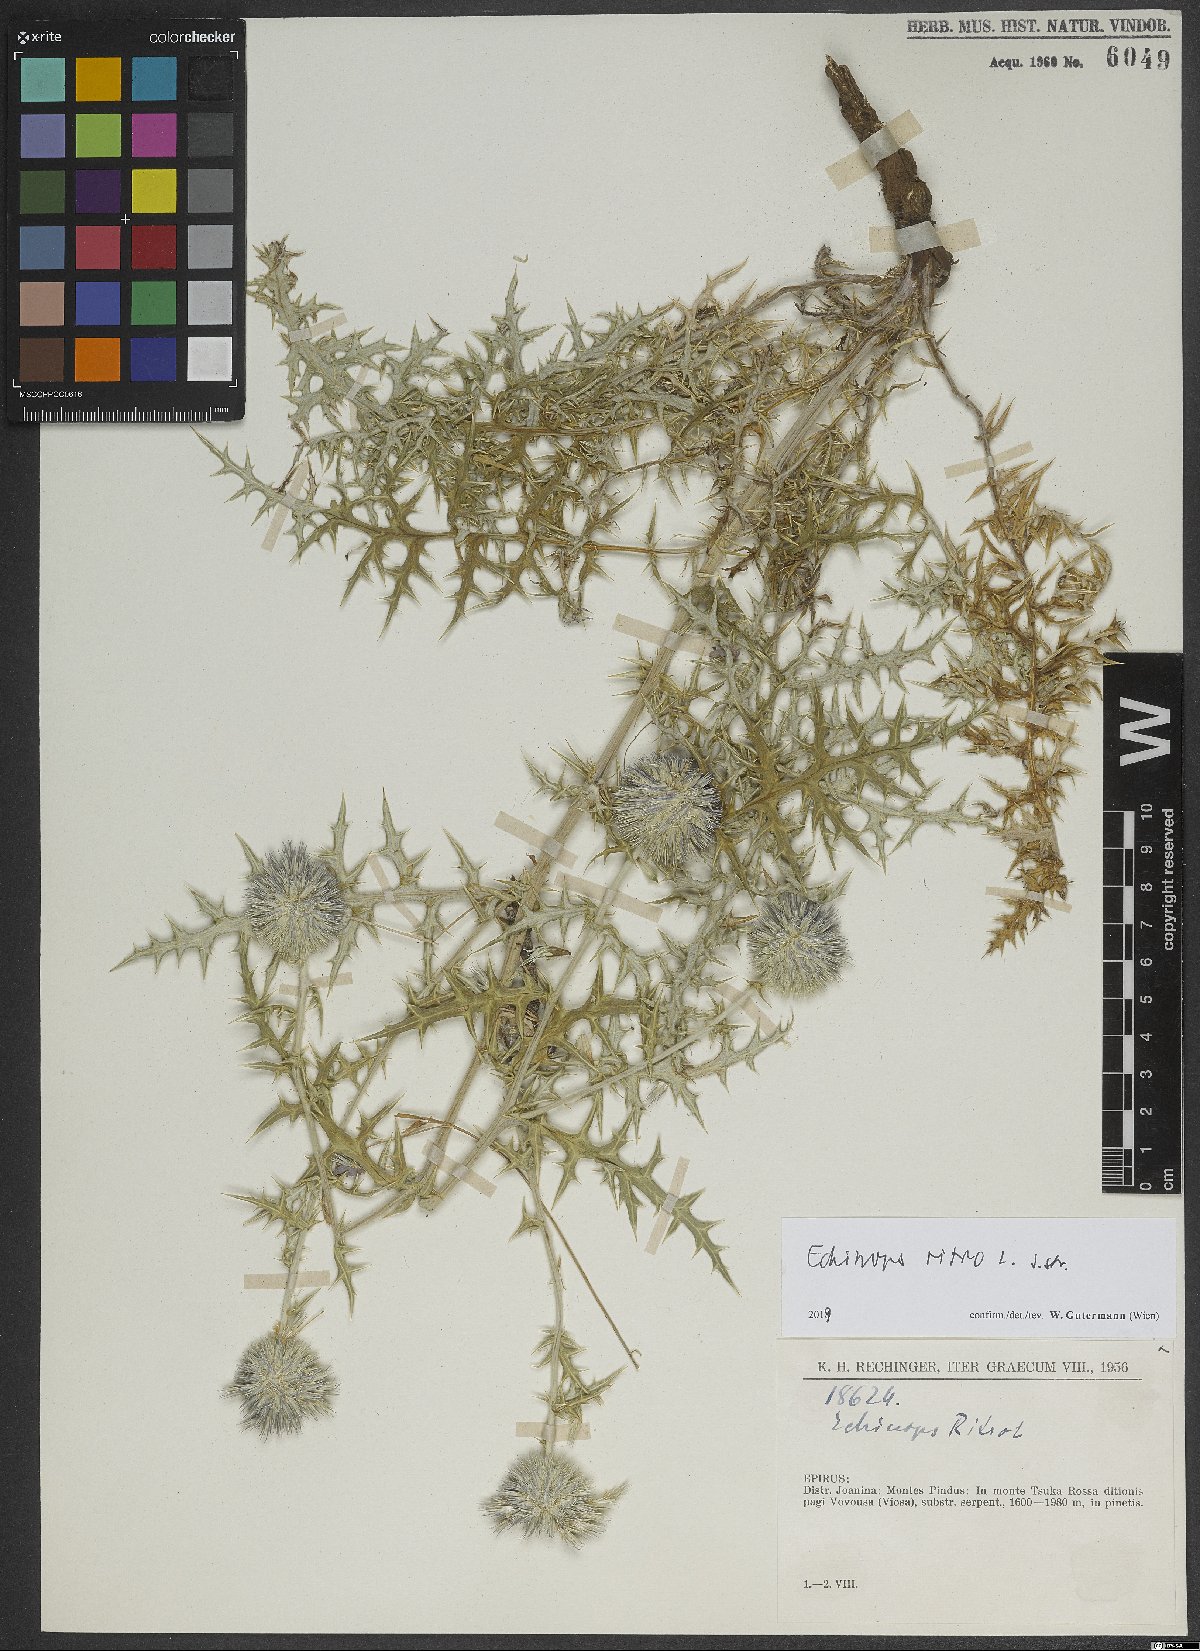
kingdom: Plantae
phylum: Tracheophyta
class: Magnoliopsida
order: Asterales
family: Asteraceae
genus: Echinops
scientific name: Echinops ritro
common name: Globe thistle
